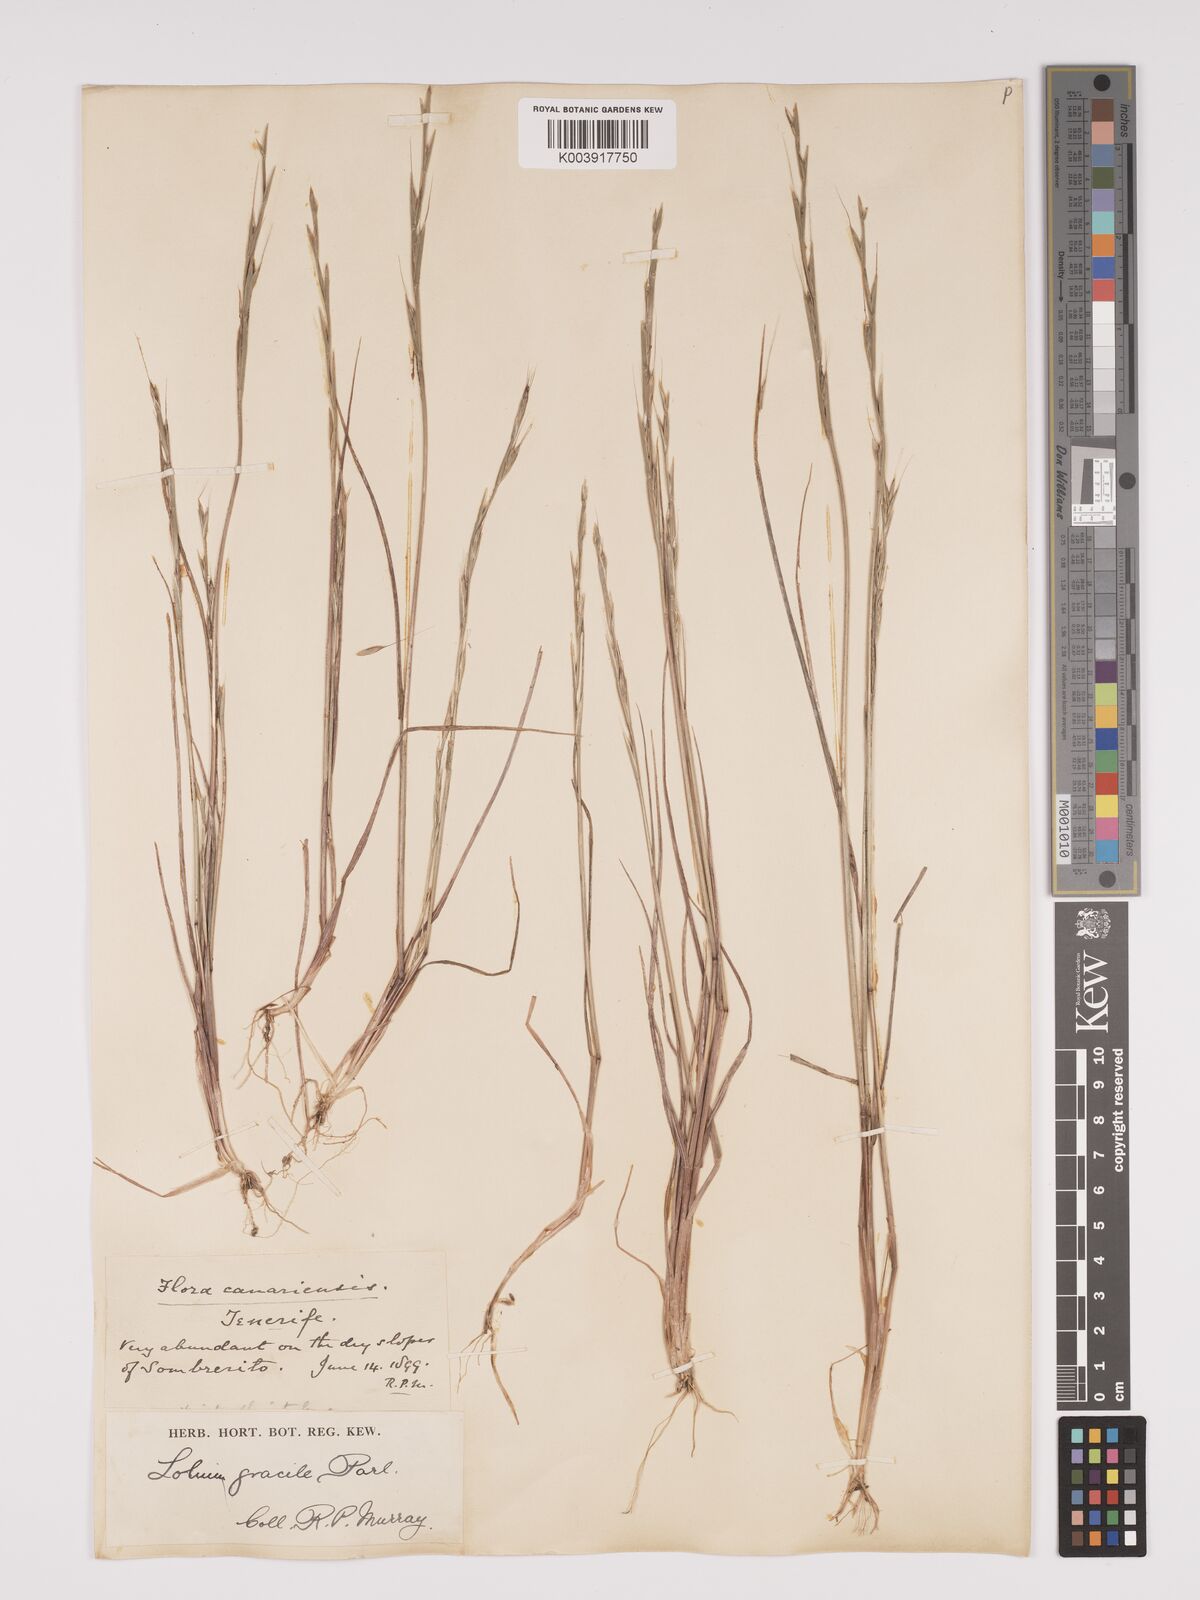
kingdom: Plantae
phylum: Tracheophyta
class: Liliopsida
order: Poales
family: Poaceae
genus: Lolium
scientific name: Lolium canariense
